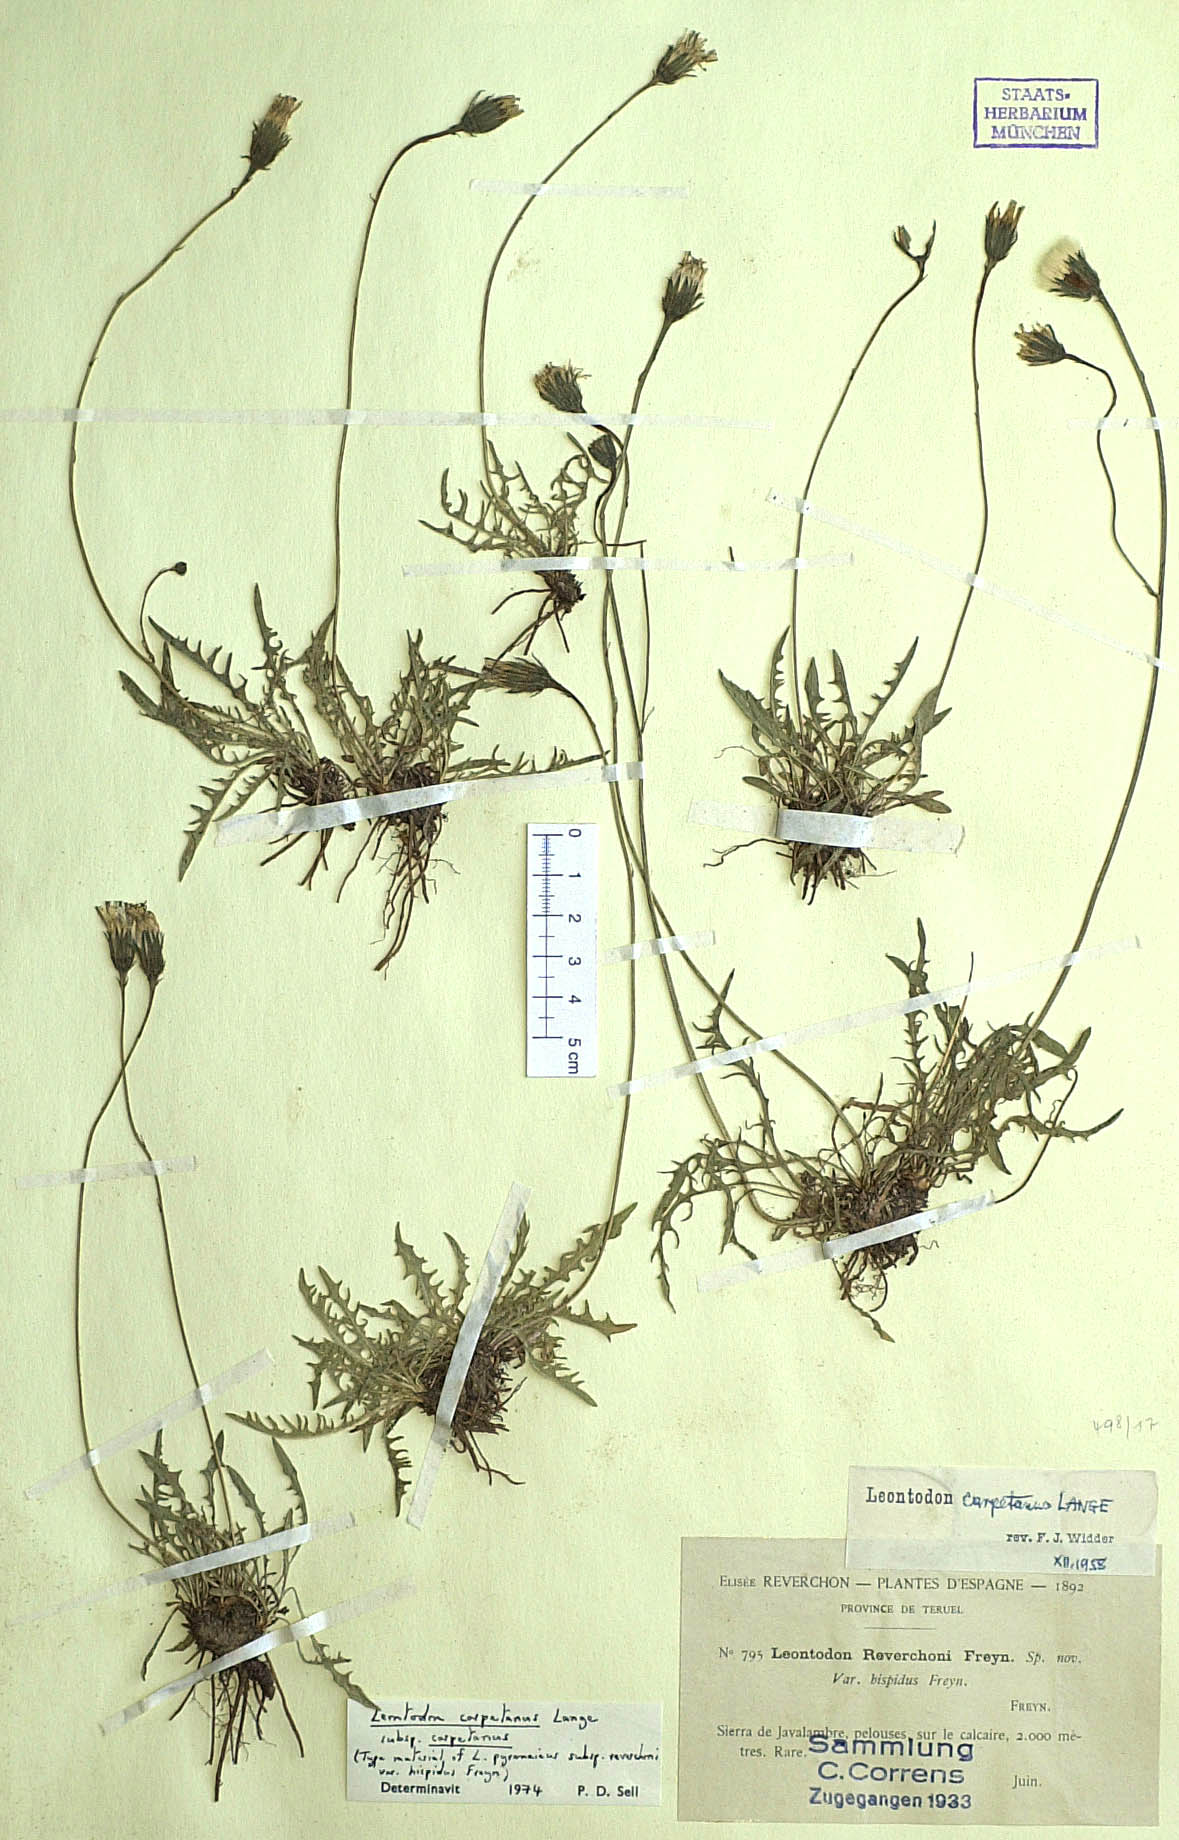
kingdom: Plantae
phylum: Tracheophyta
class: Magnoliopsida
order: Asterales
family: Asteraceae
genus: Scorzoneroides
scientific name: Scorzoneroides carpetana
